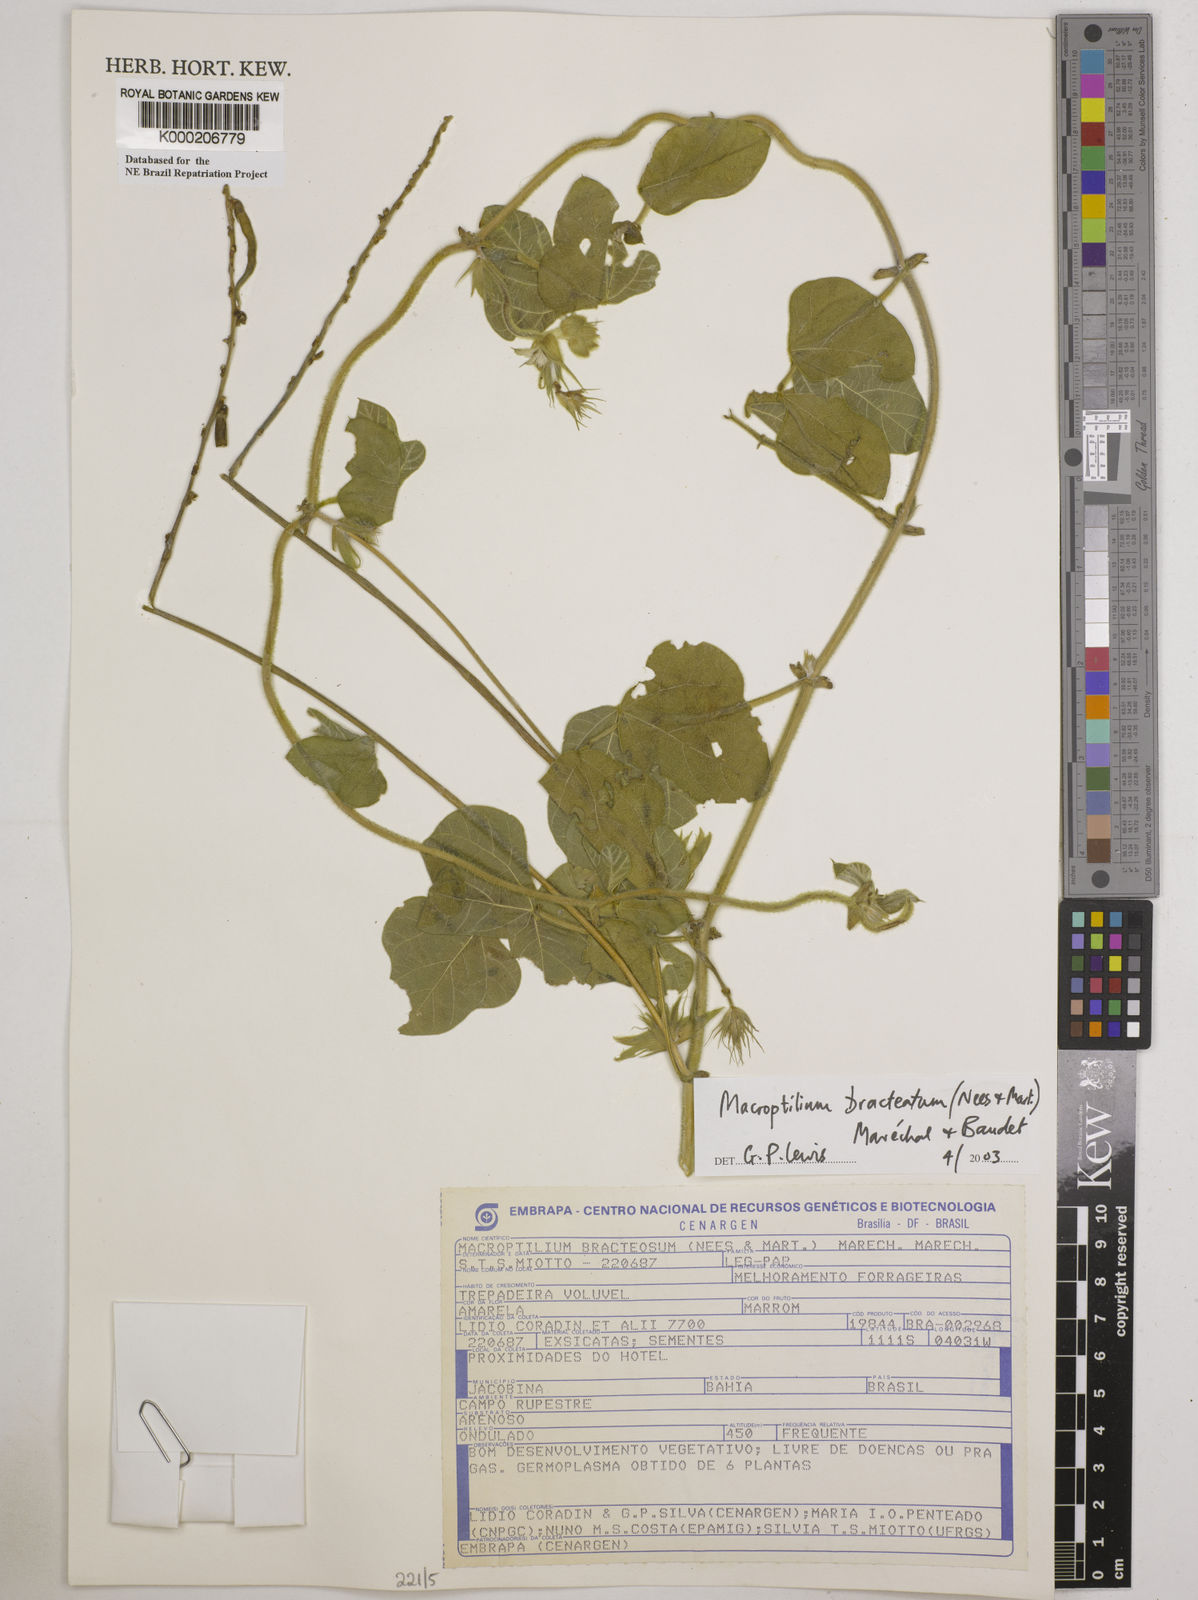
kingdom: Plantae
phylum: Tracheophyta
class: Magnoliopsida
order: Fabales
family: Fabaceae
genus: Macroptilium
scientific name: Macroptilium
